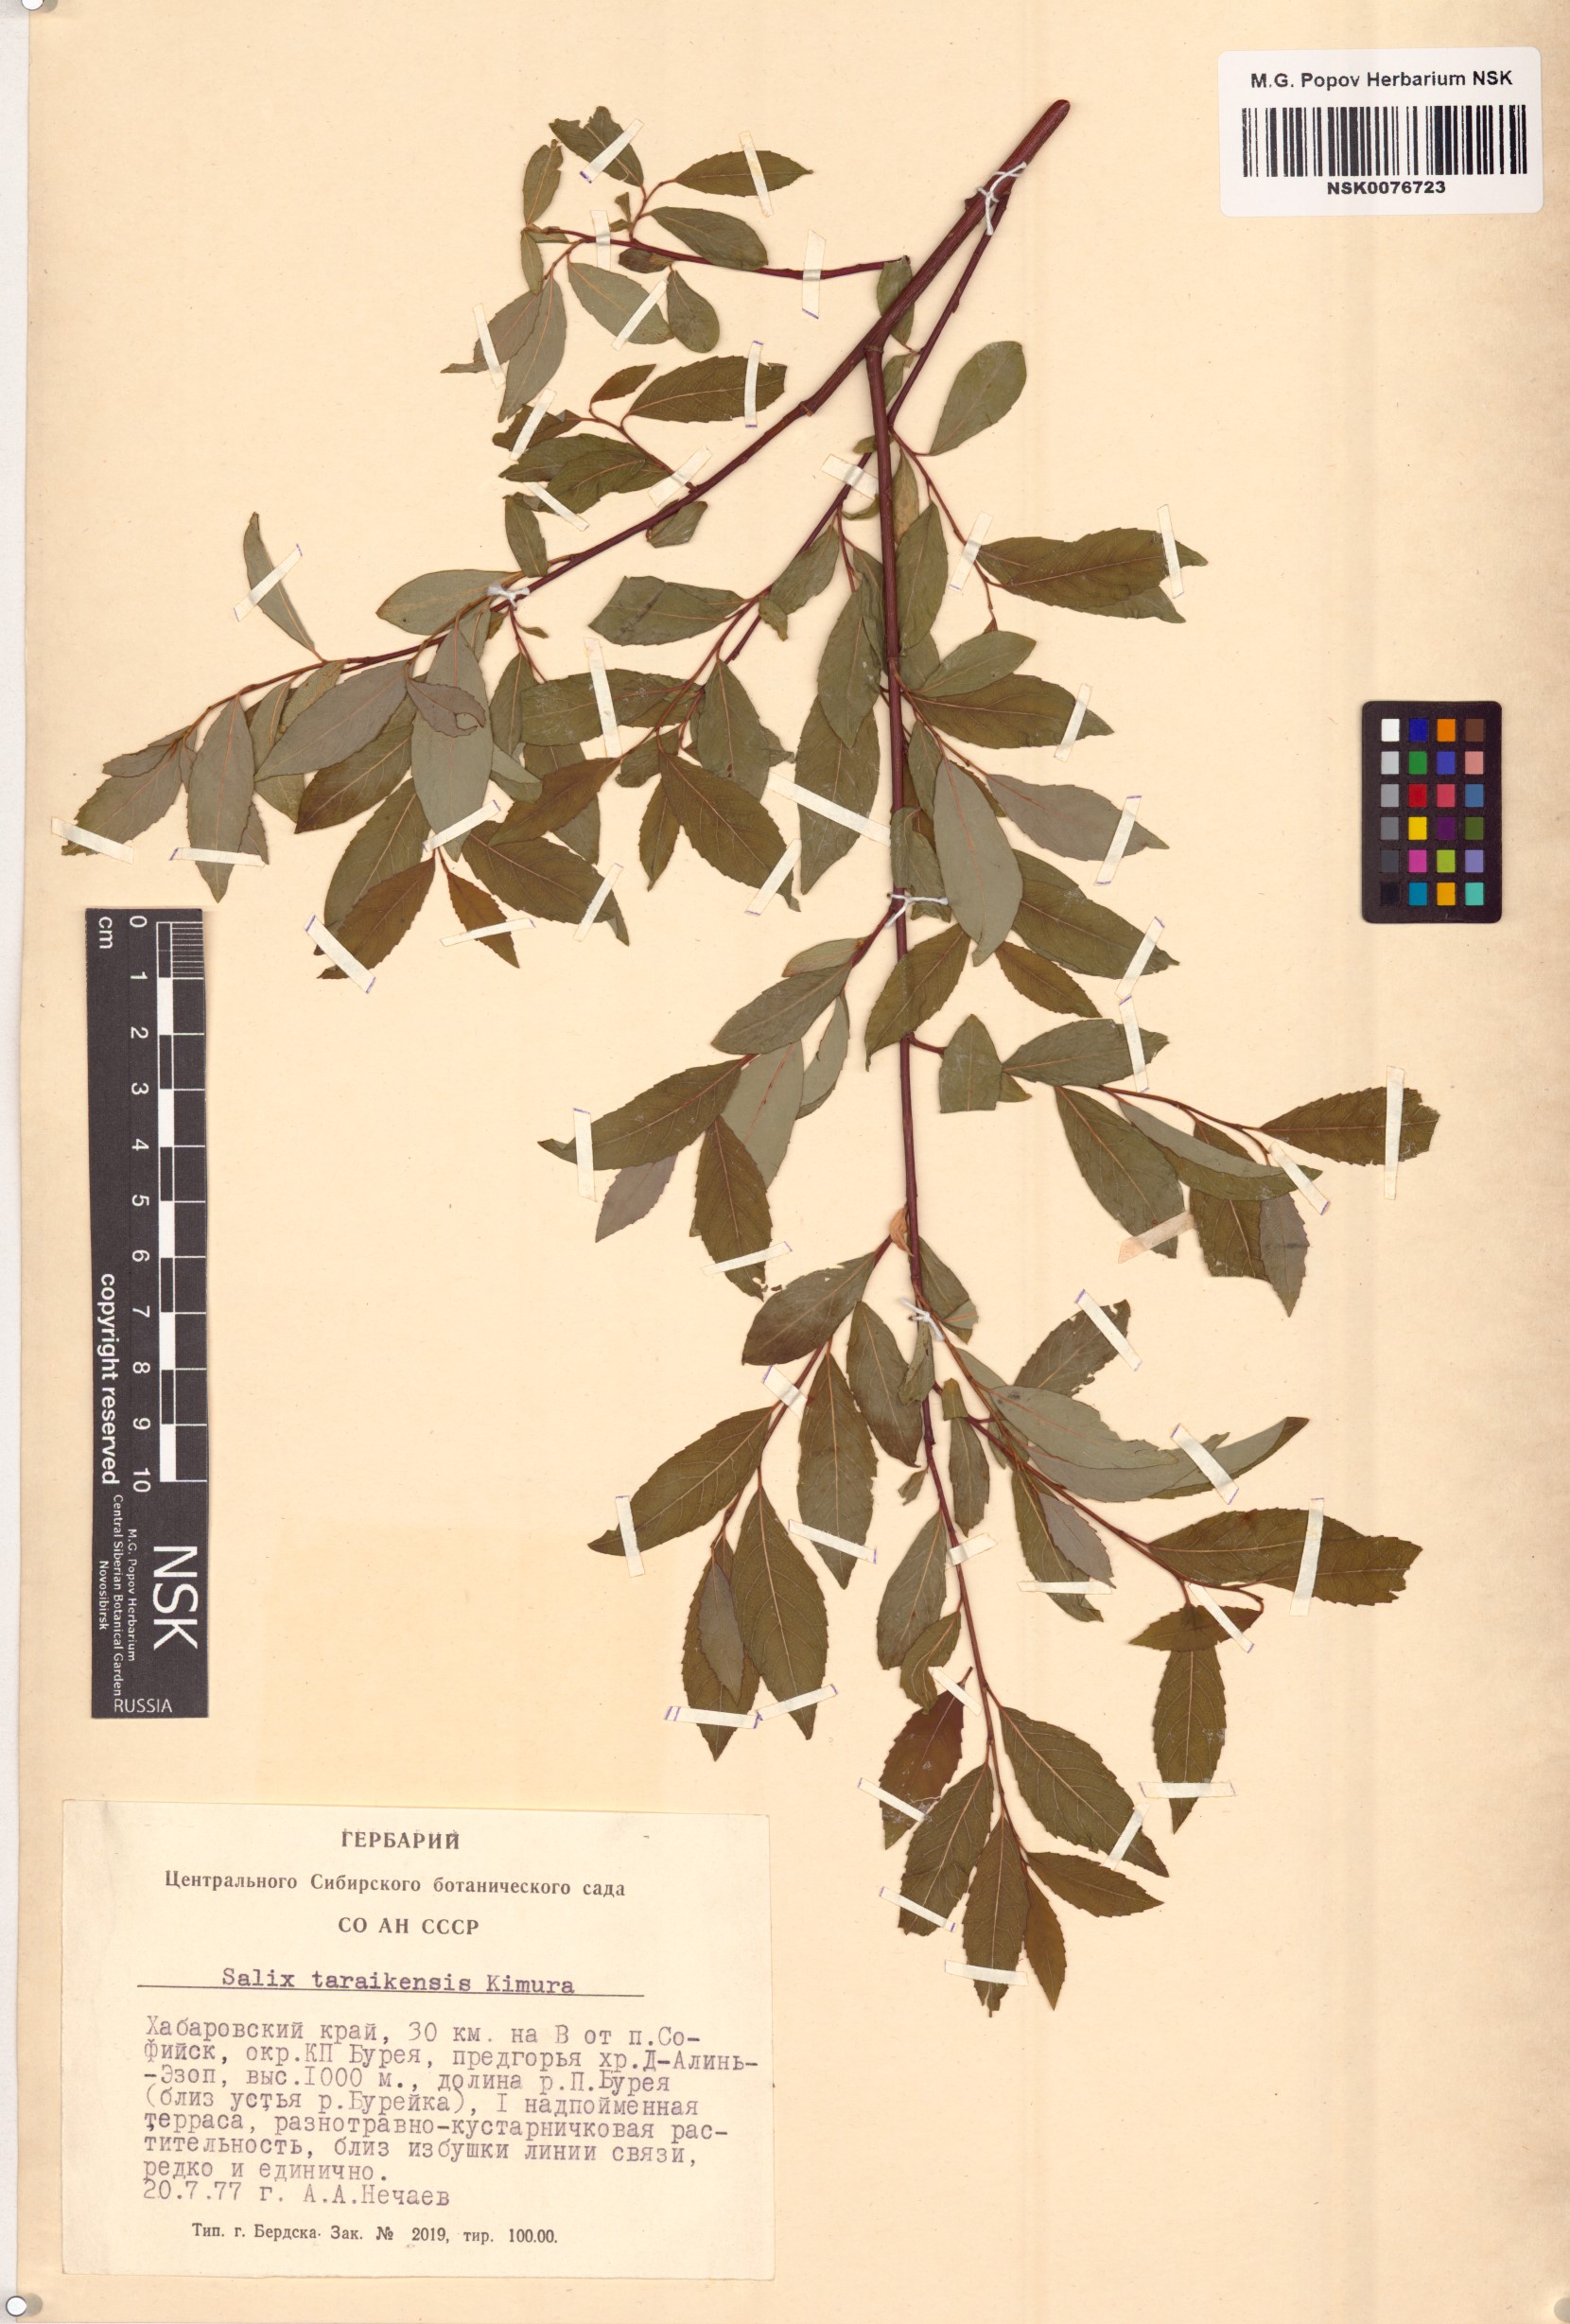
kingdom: Plantae
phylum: Tracheophyta
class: Magnoliopsida
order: Malpighiales
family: Salicaceae
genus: Salix
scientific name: Salix taraikensis
